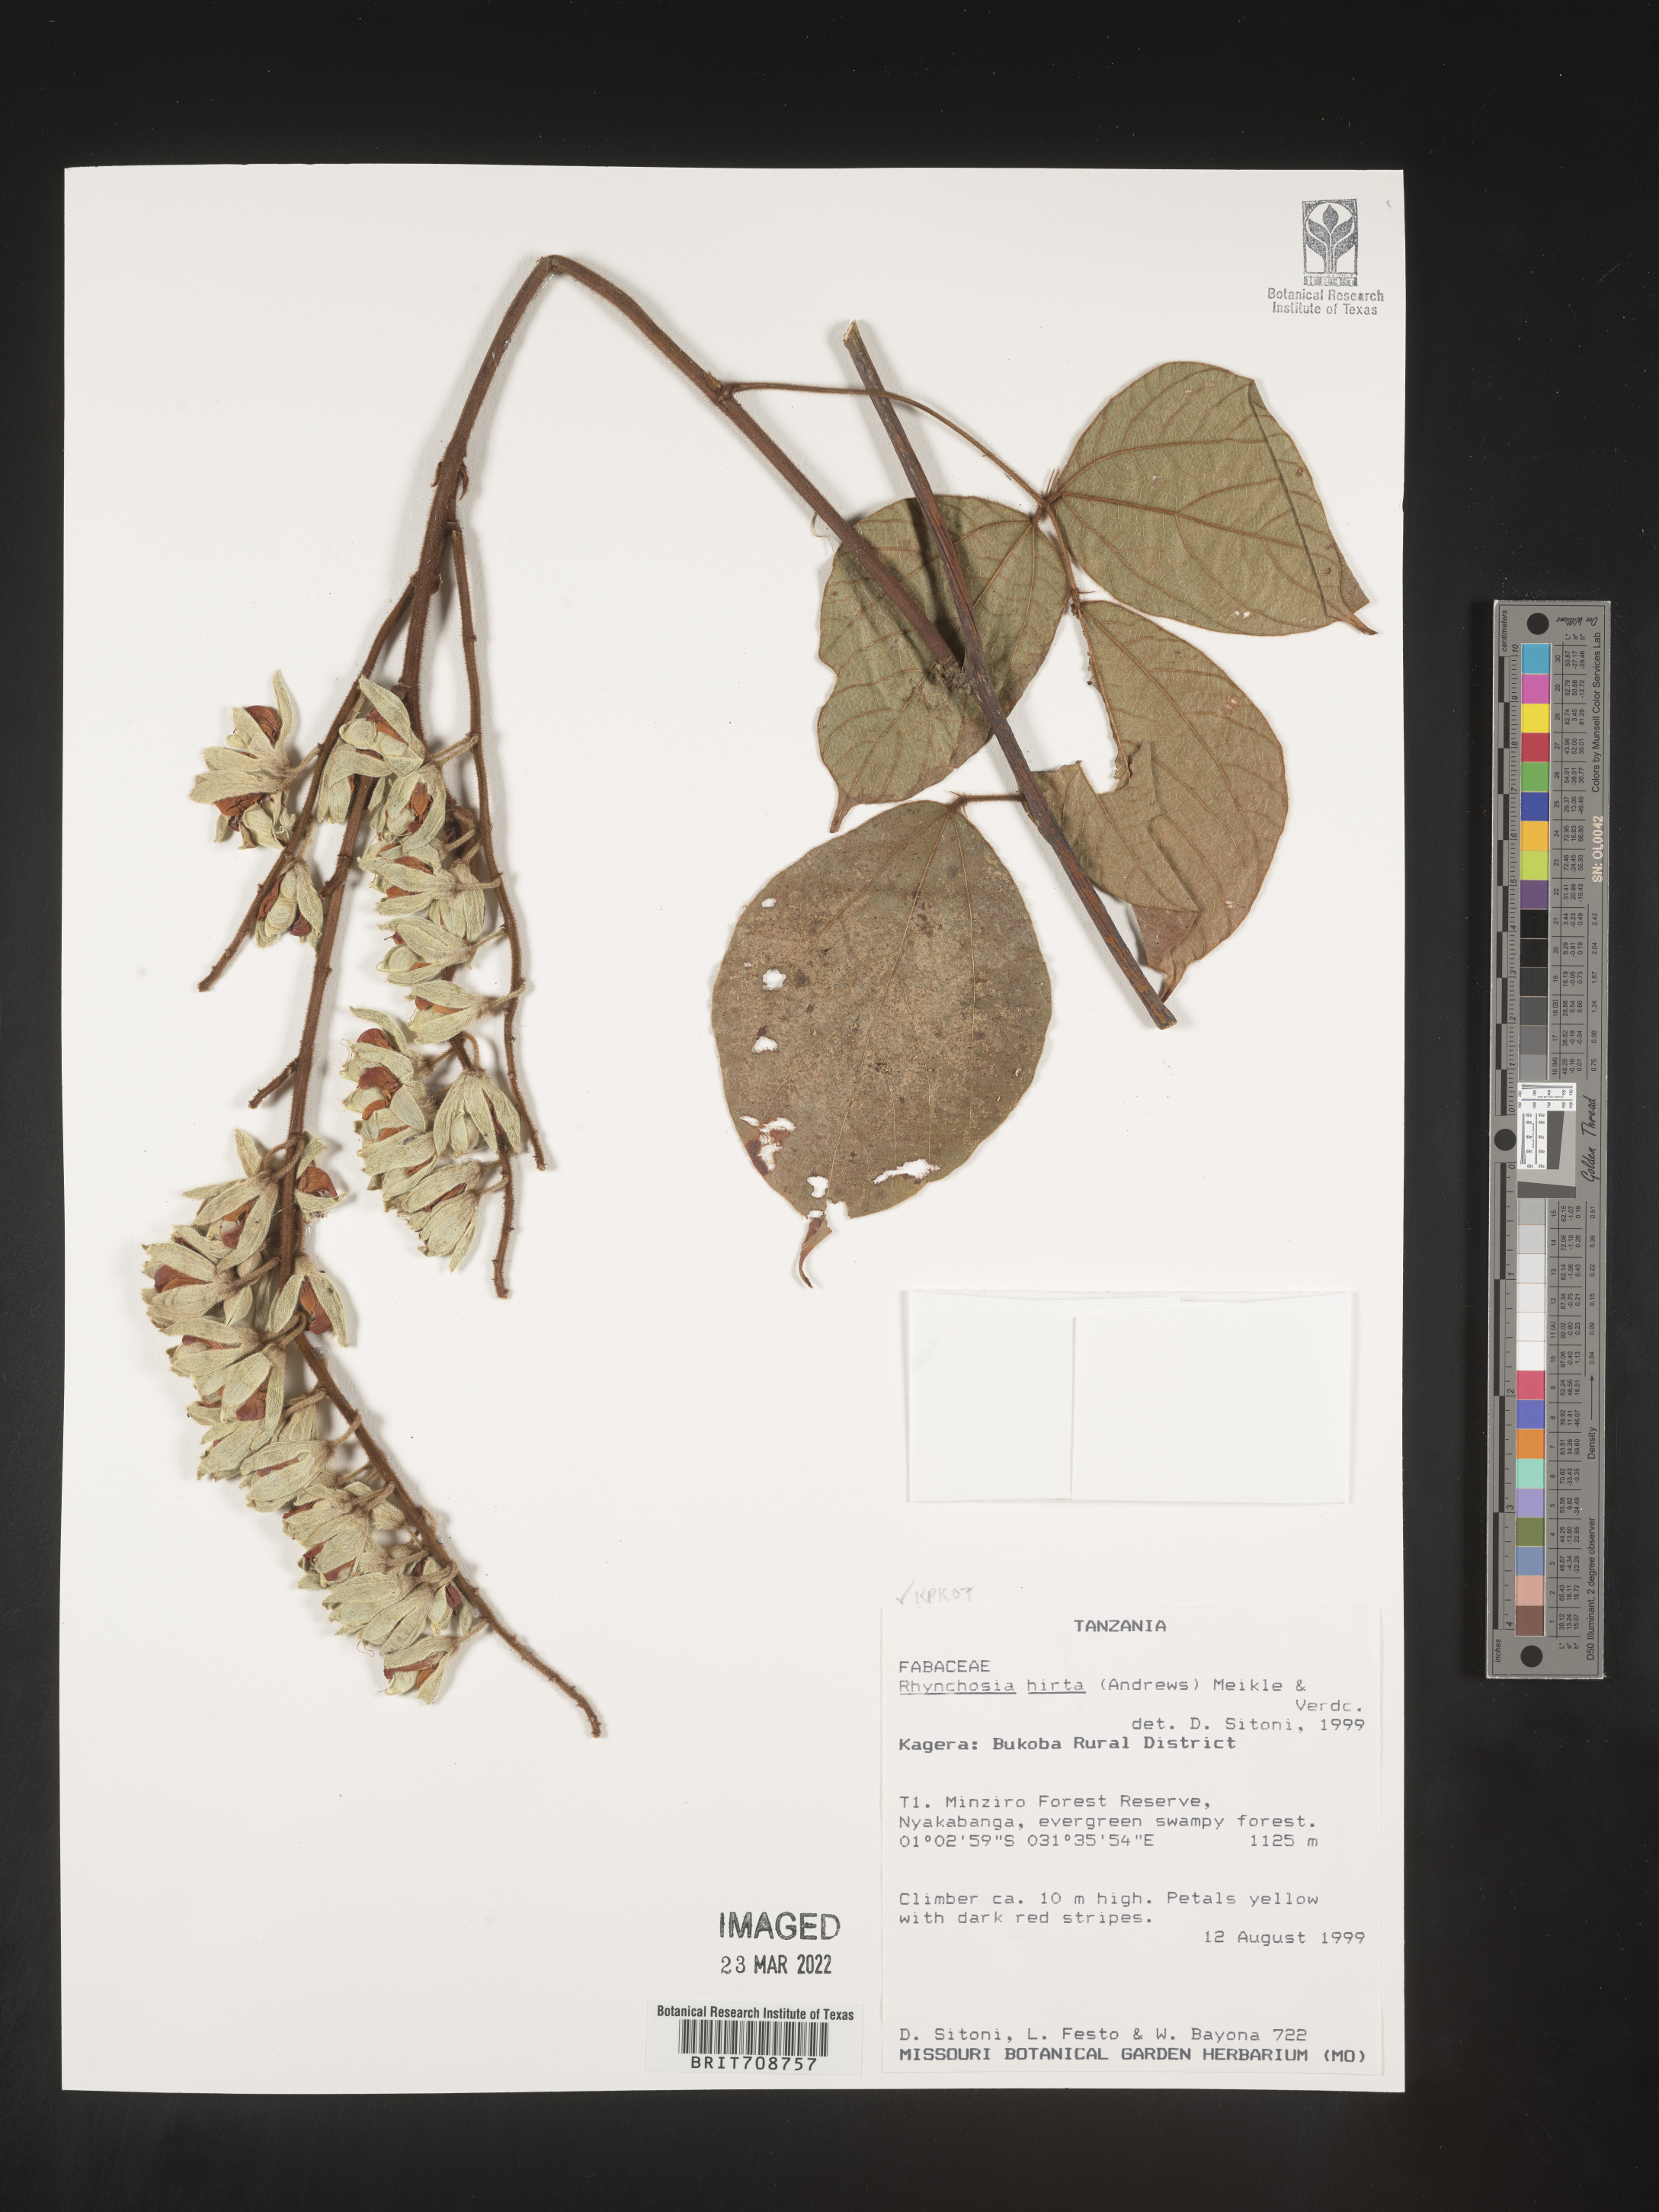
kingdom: Plantae
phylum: Tracheophyta
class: Magnoliopsida
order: Fabales
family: Fabaceae
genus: Rhynchosia
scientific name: Rhynchosia
